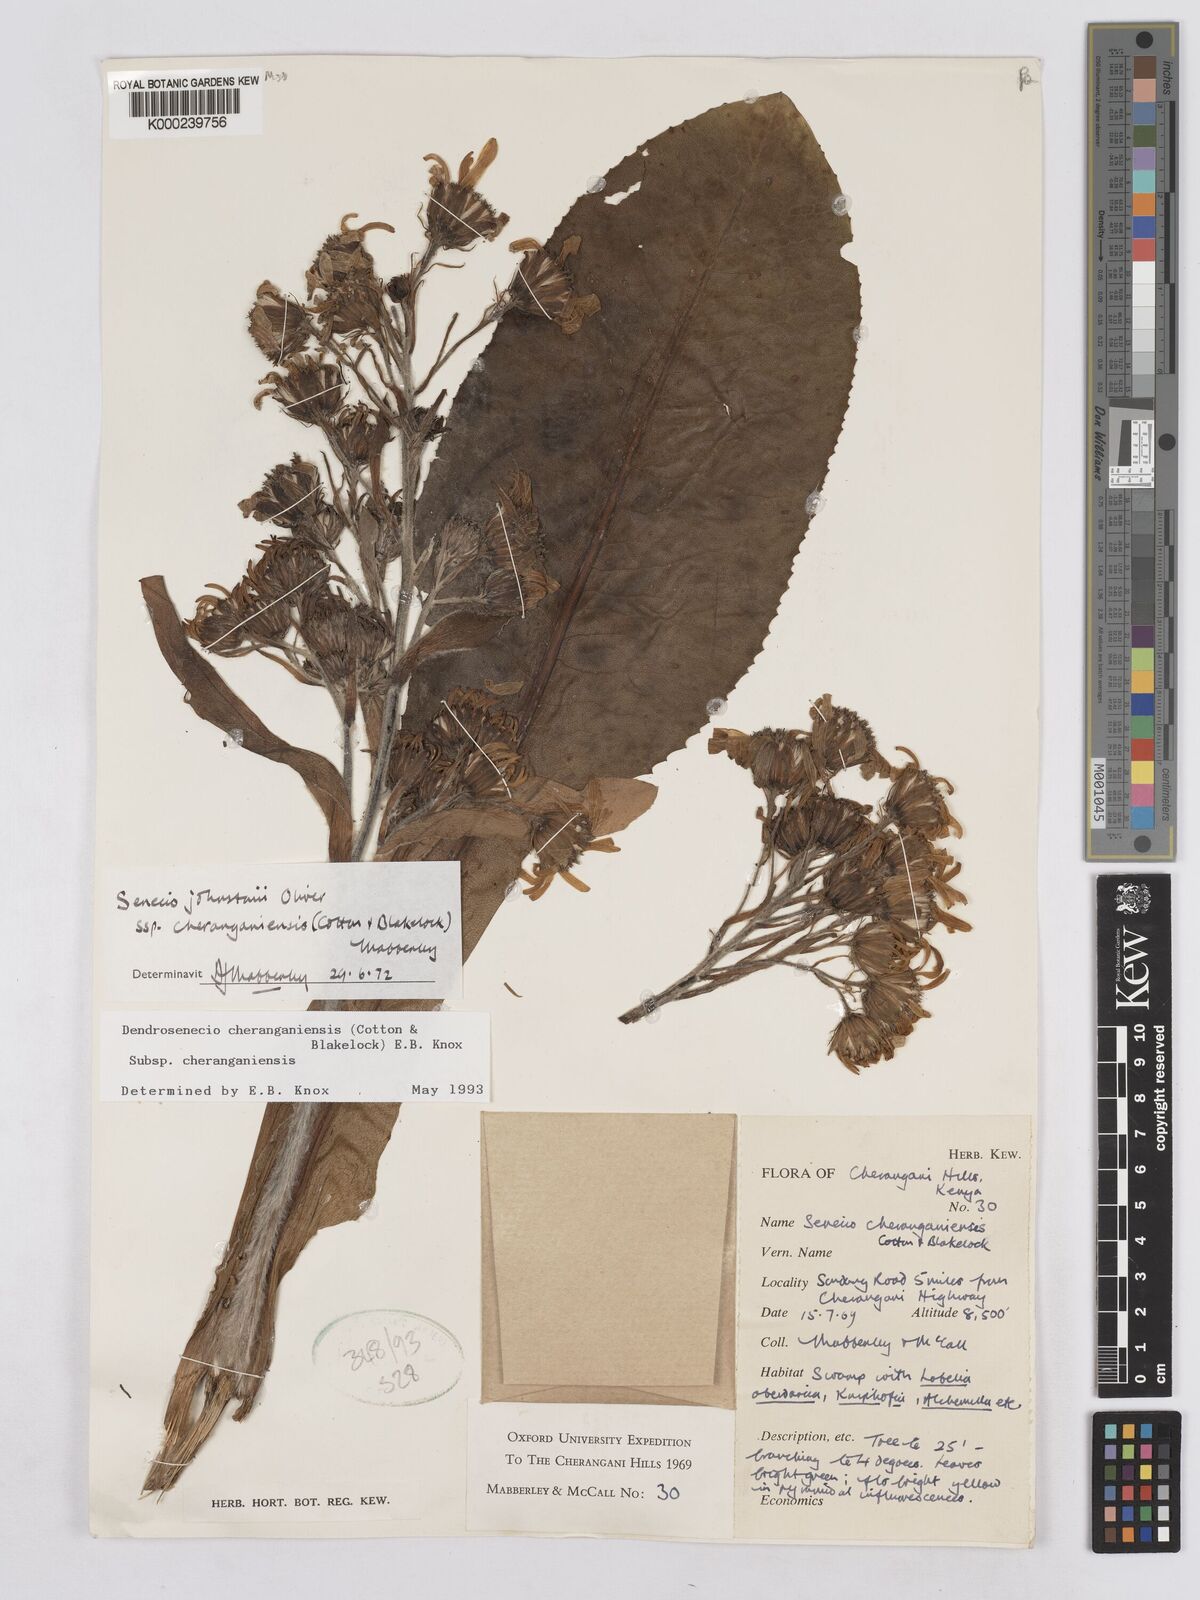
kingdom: Plantae
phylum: Tracheophyta
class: Magnoliopsida
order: Asterales
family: Asteraceae
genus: Dendrosenecio
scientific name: Dendrosenecio cheranganiensis
